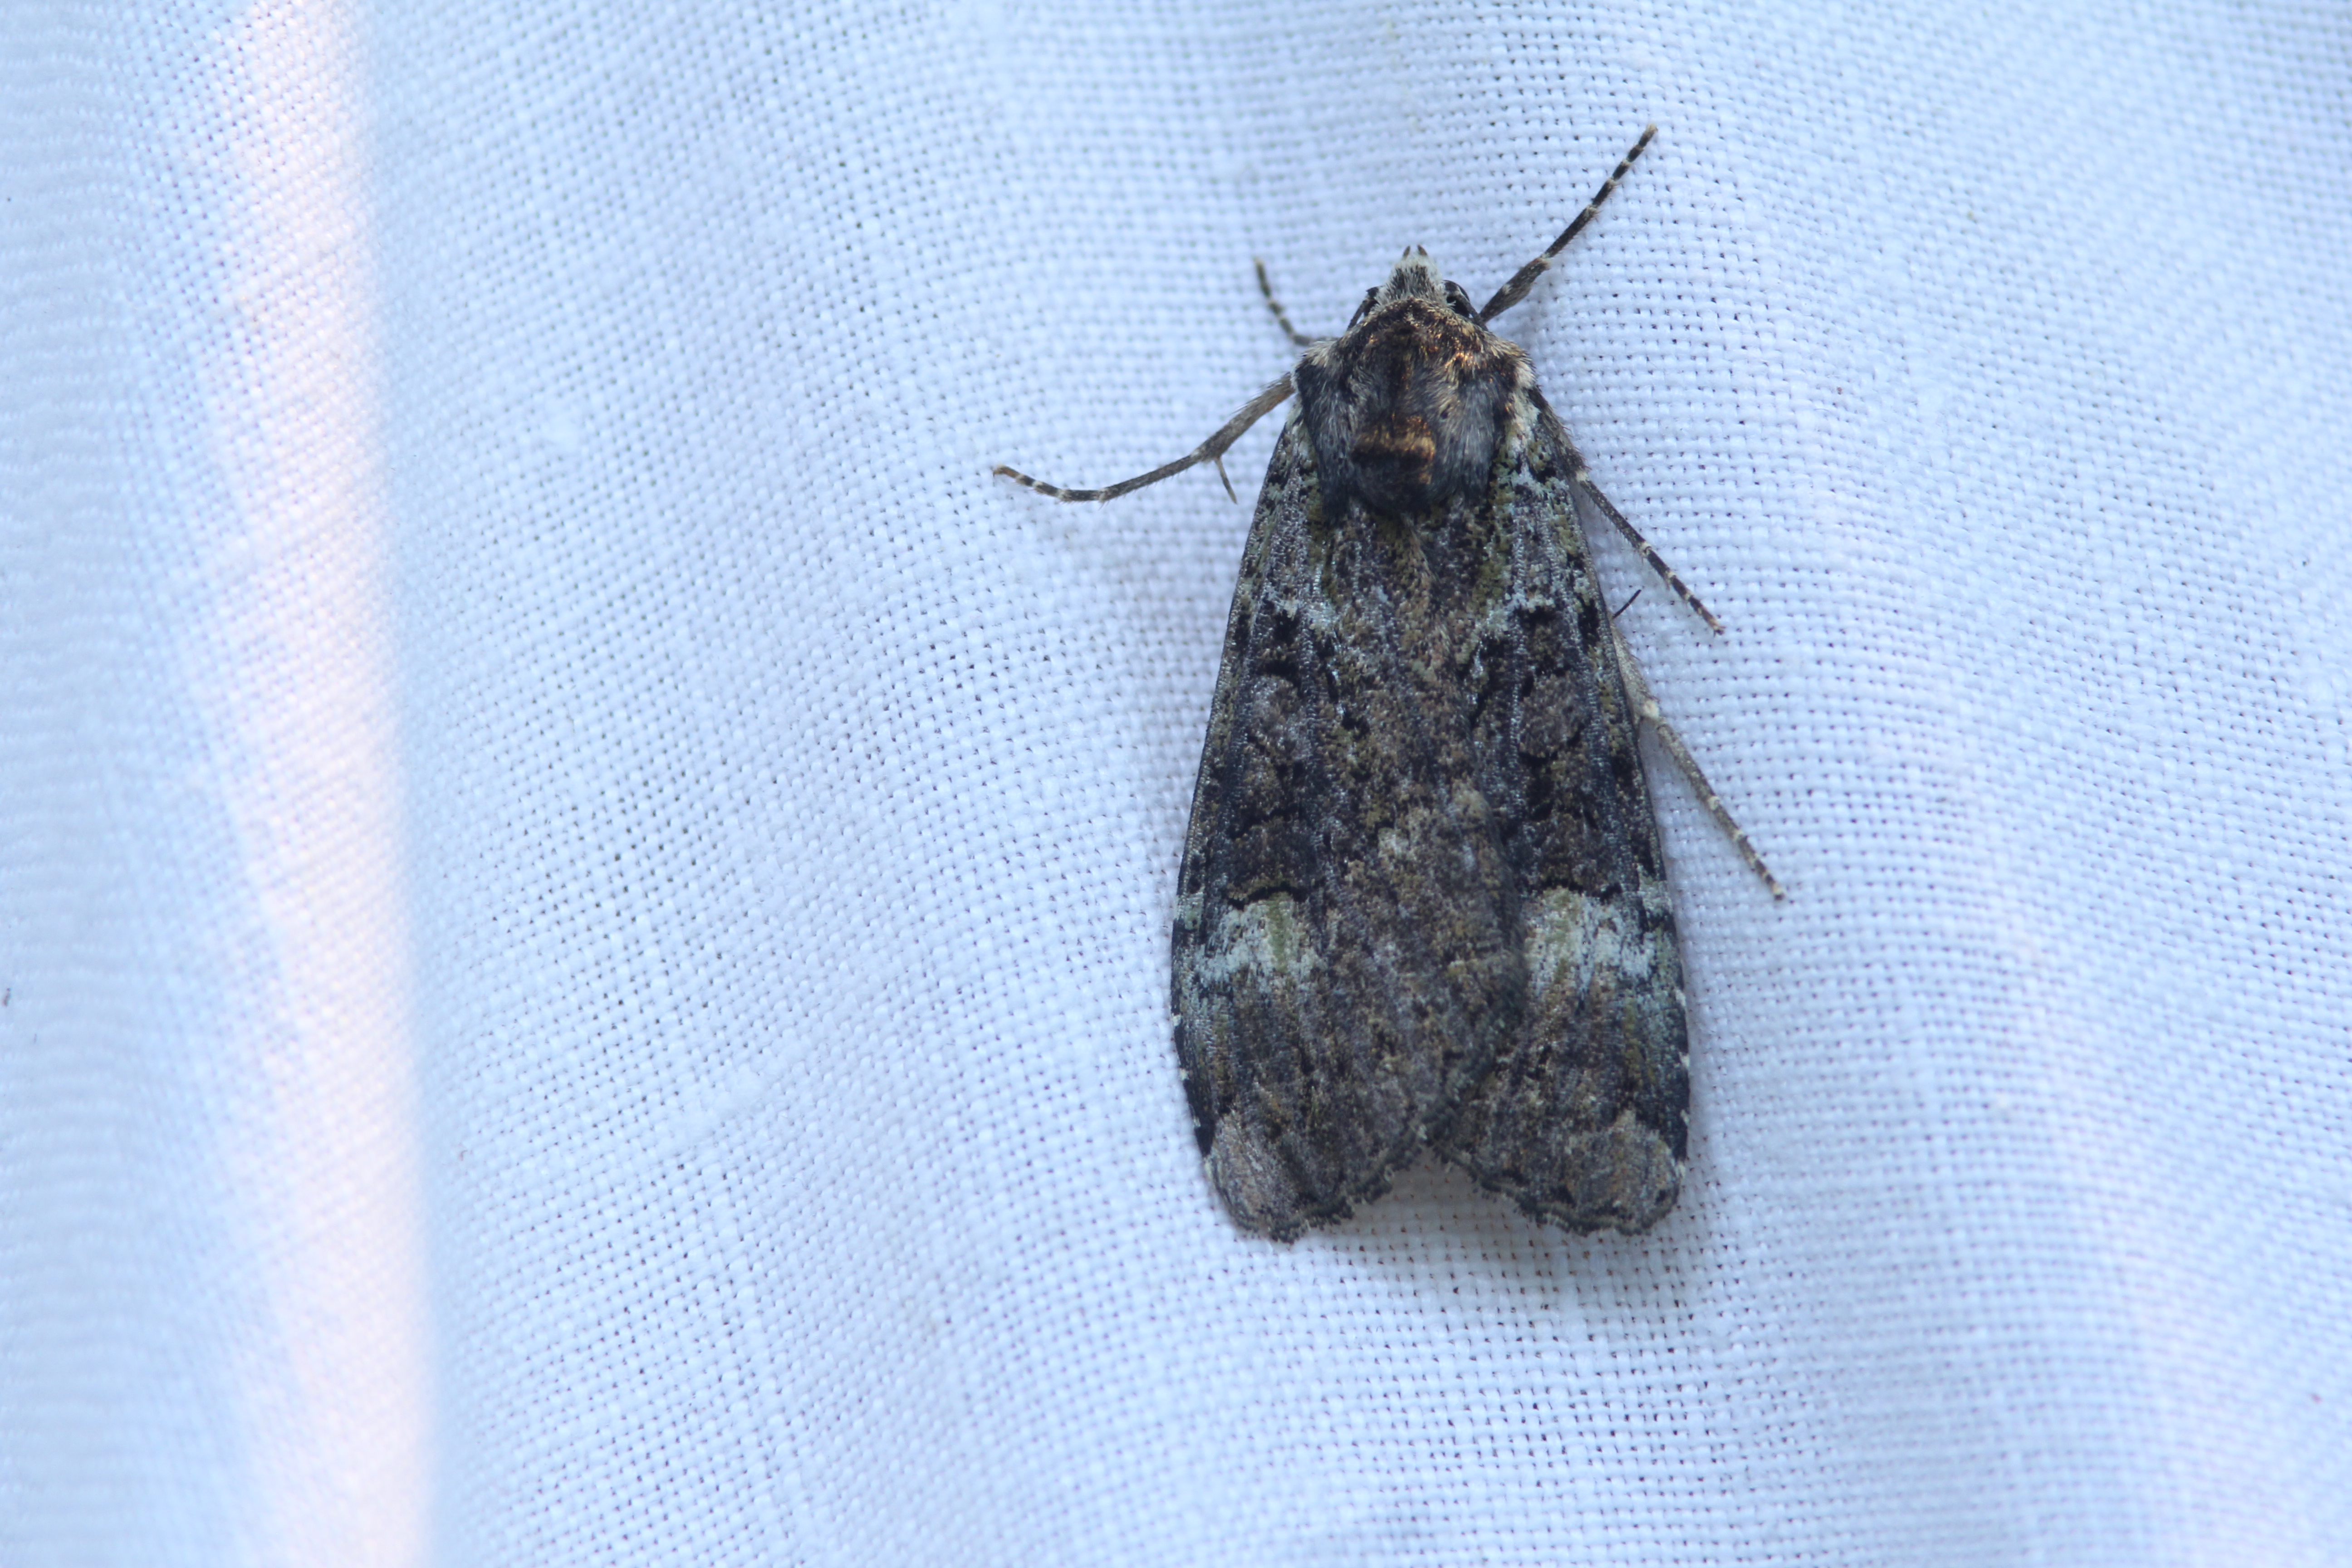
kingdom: Animalia
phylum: Arthropoda
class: Insecta
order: Lepidoptera
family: Noctuidae
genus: Anaplectoides
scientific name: Anaplectoides prasina
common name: Green arches
